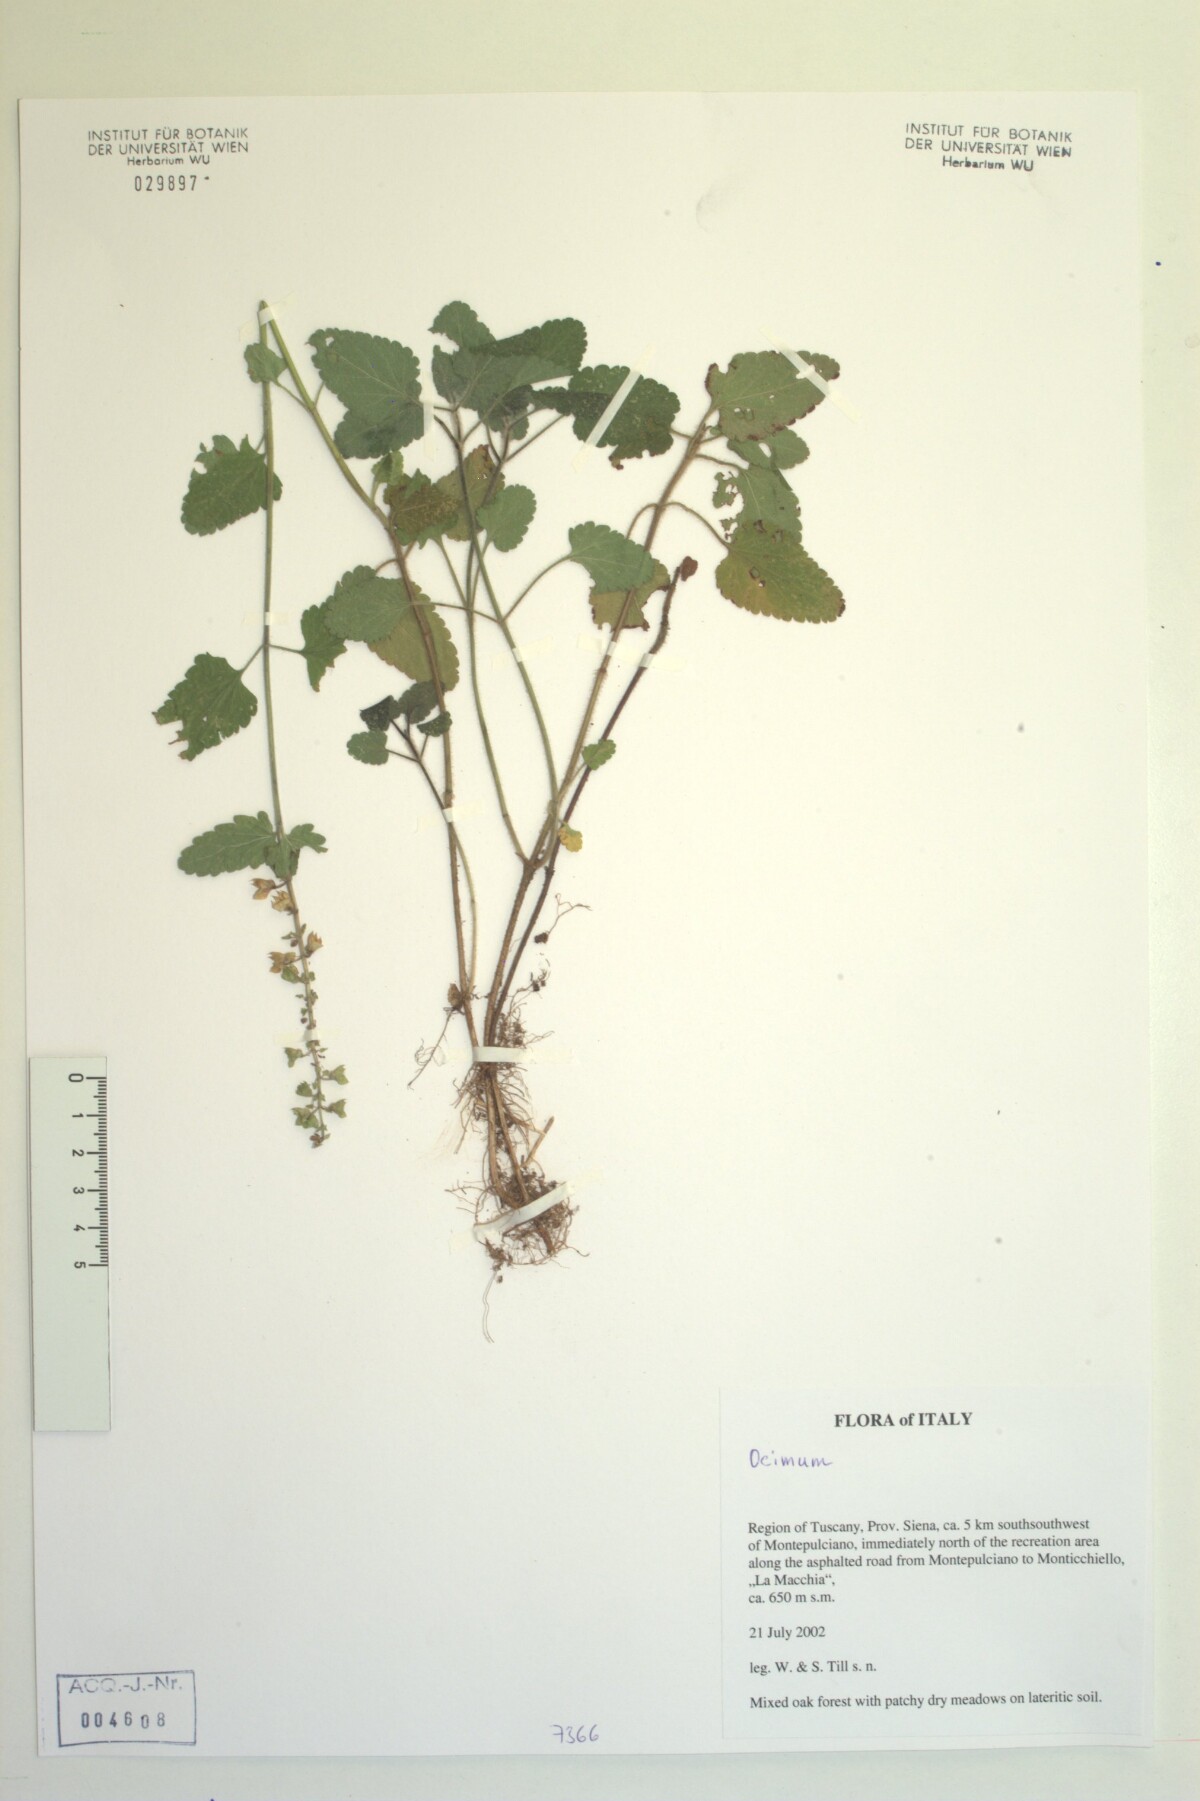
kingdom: Plantae
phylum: Tracheophyta
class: Magnoliopsida
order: Lamiales
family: Lamiaceae
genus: Teucrium
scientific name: Teucrium siculum
